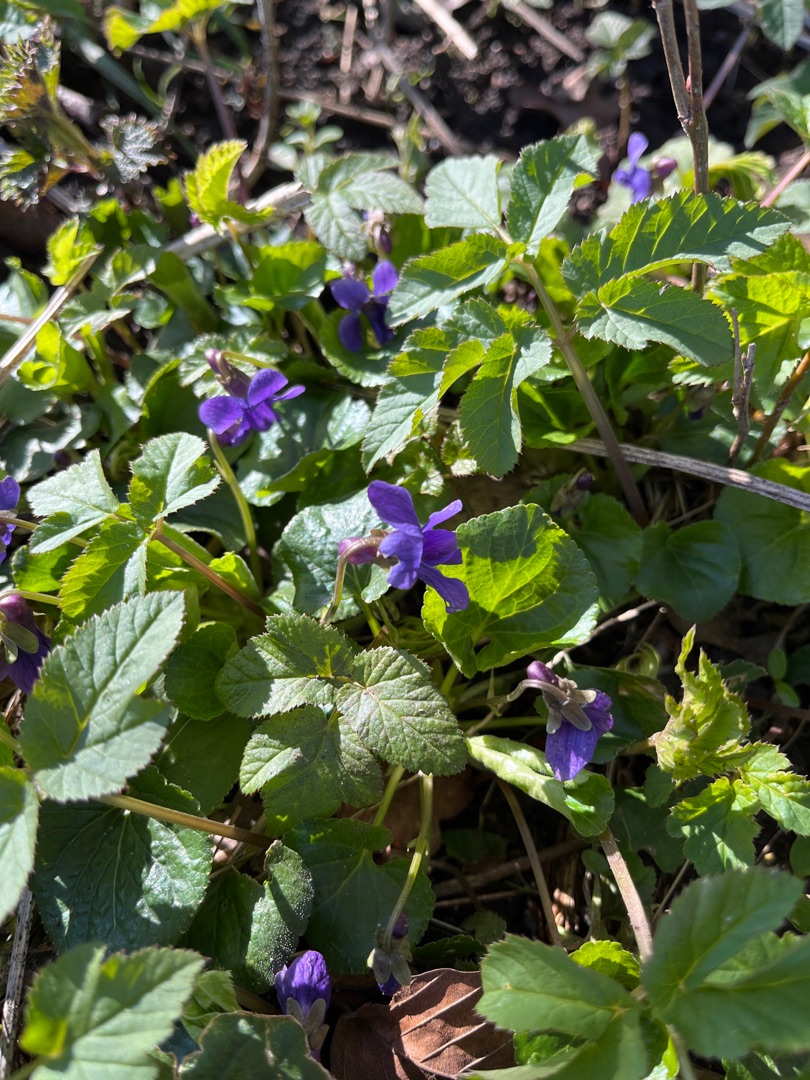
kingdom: Plantae
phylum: Tracheophyta
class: Magnoliopsida
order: Malpighiales
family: Violaceae
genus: Viola
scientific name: Viola odorata
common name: Marts-viol
